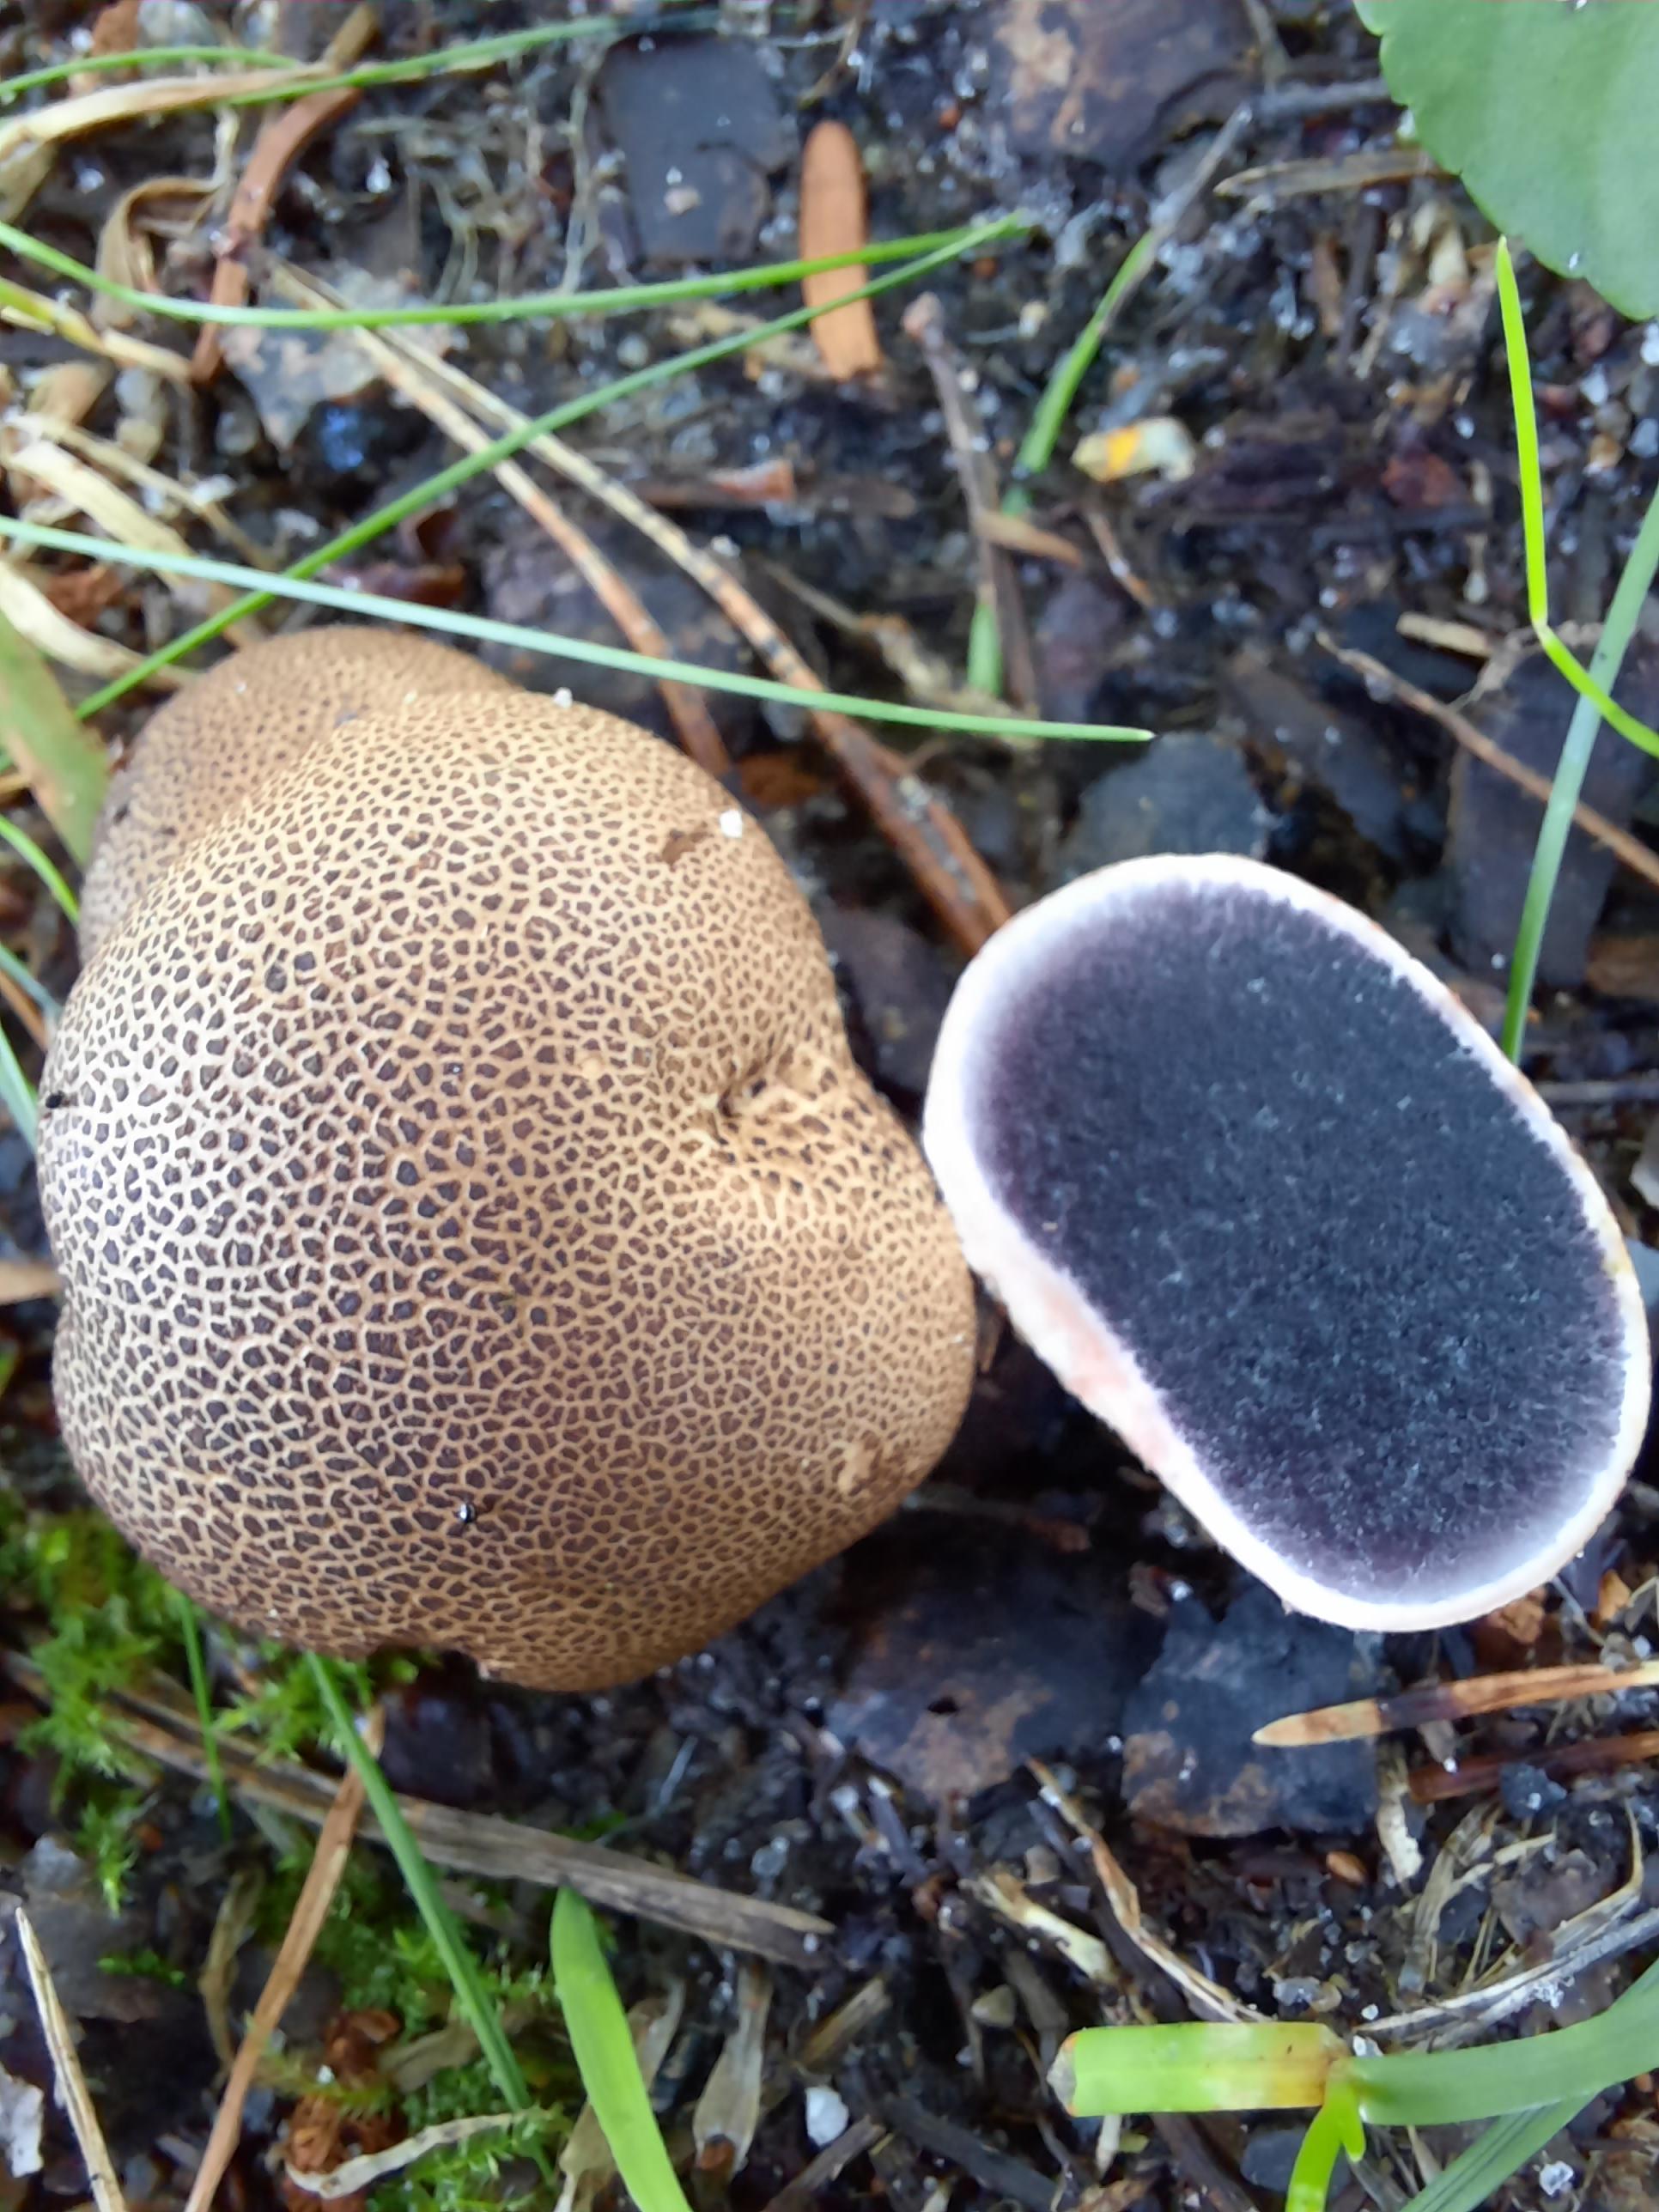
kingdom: Fungi
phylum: Basidiomycota
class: Agaricomycetes
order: Boletales
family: Sclerodermataceae
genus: Scleroderma
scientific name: Scleroderma areolatum
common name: plettet bruskbold
